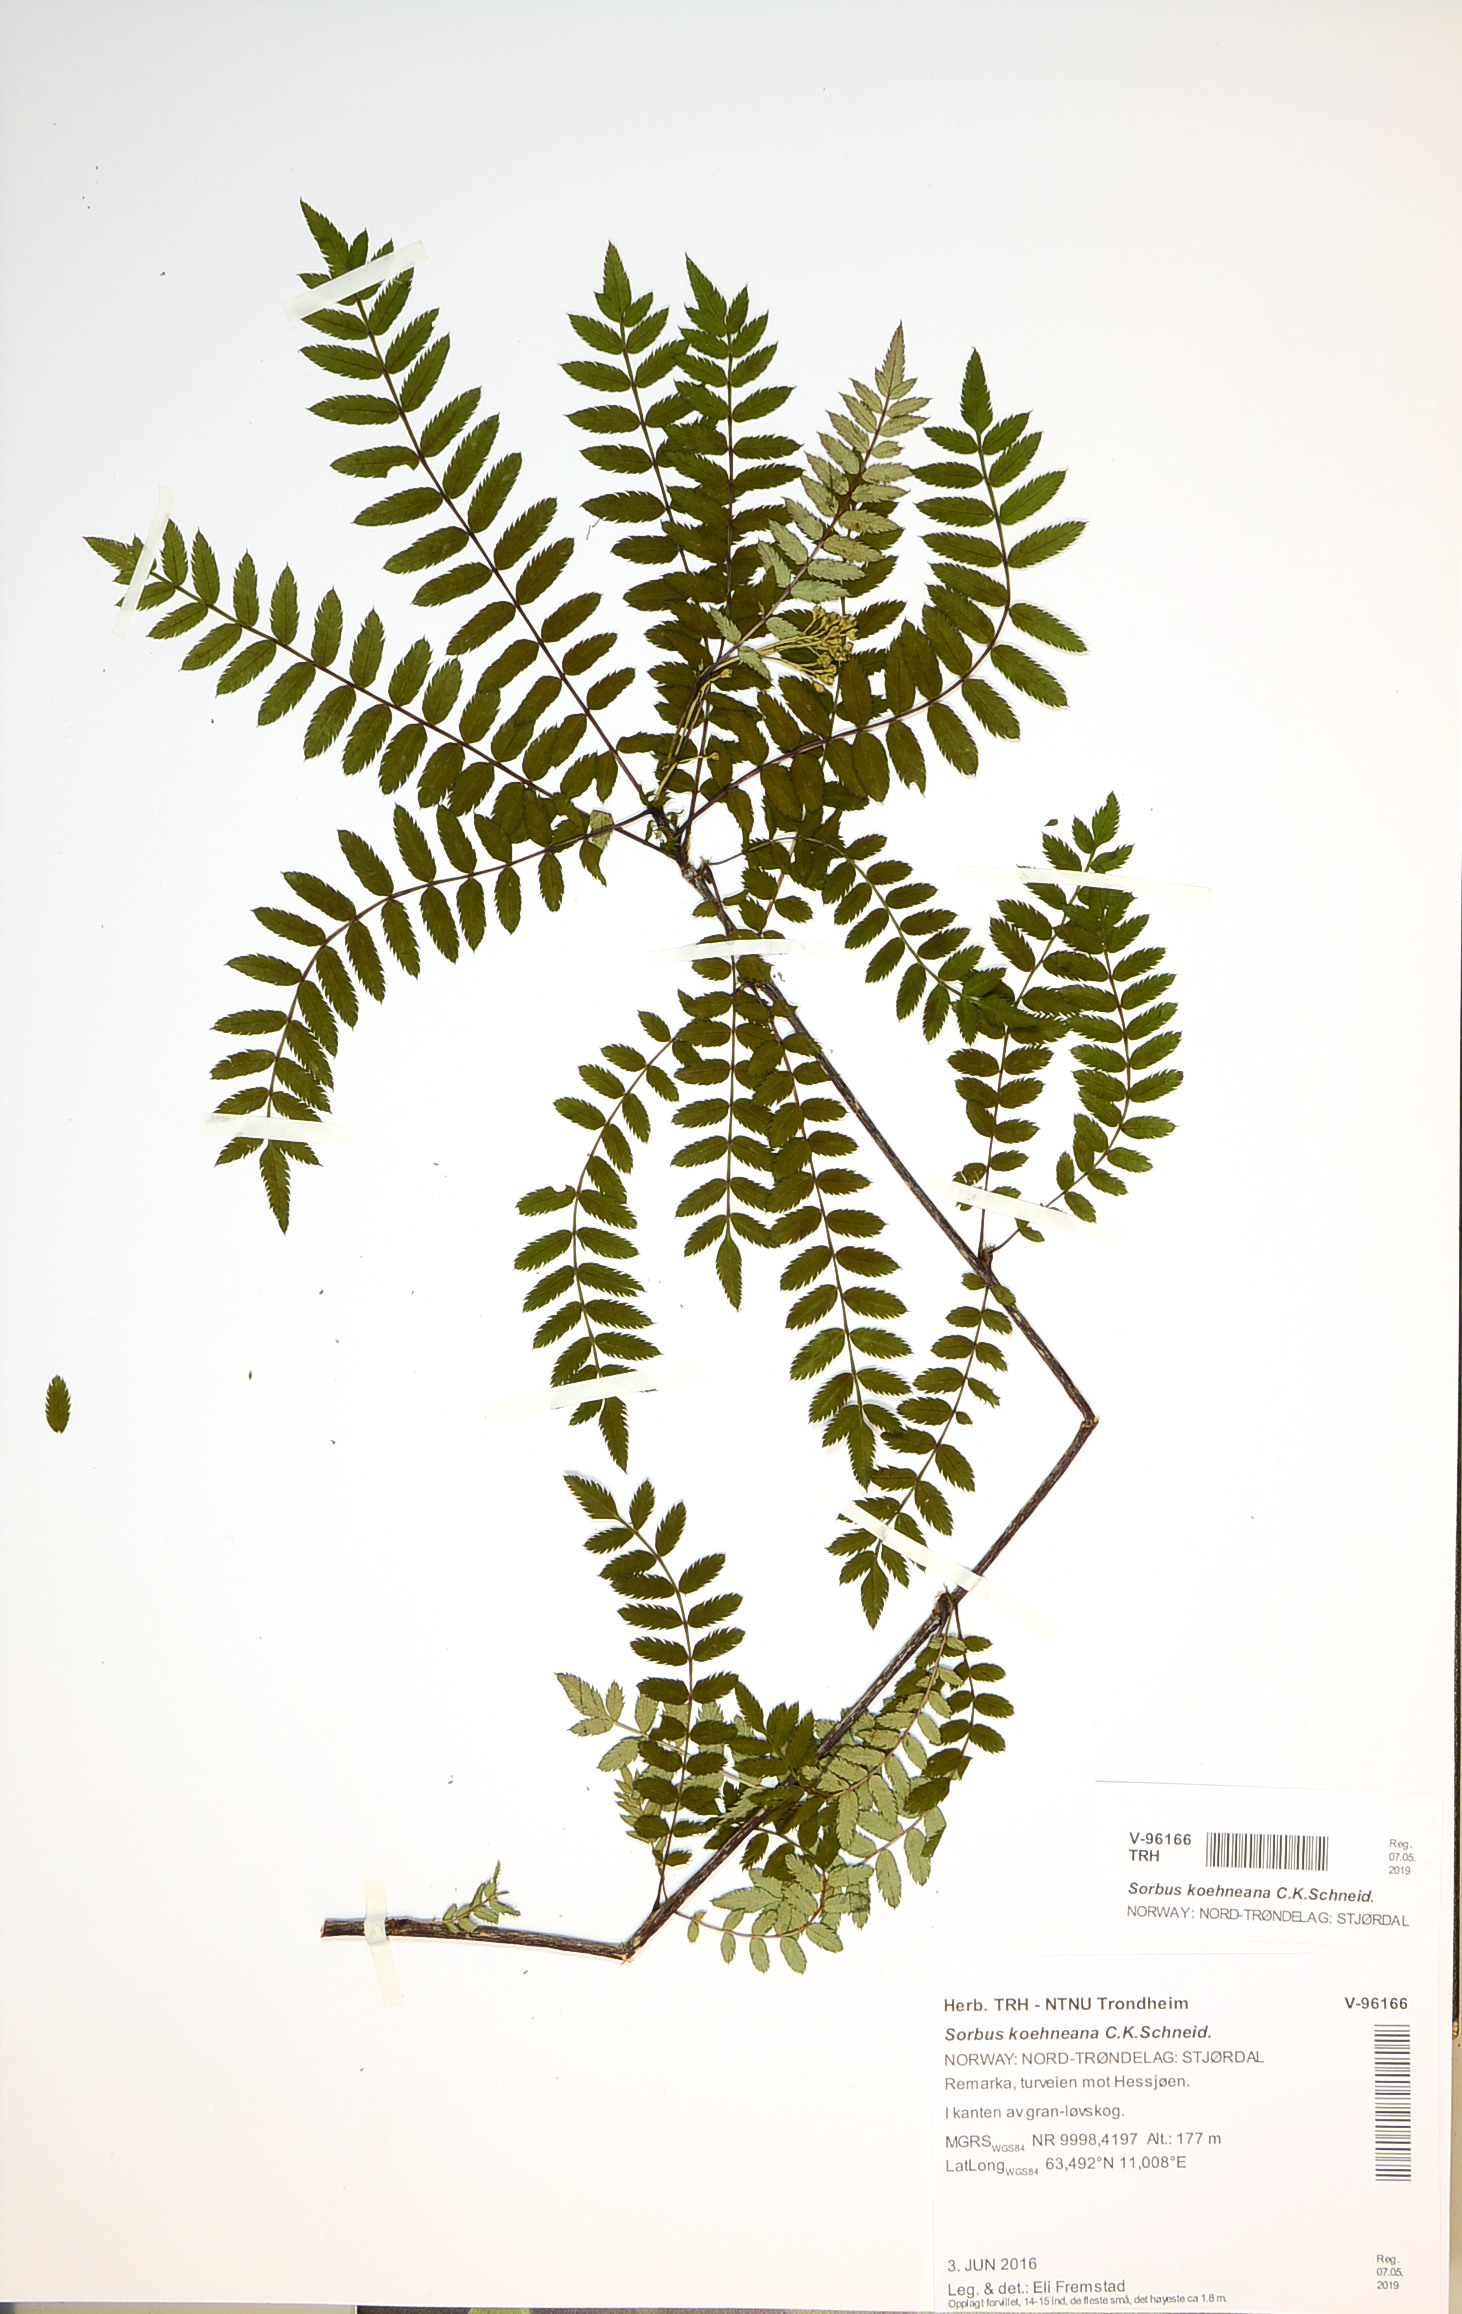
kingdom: Plantae
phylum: Tracheophyta
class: Magnoliopsida
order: Rosales
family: Rosaceae
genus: Sorbus
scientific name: Sorbus frutescens
